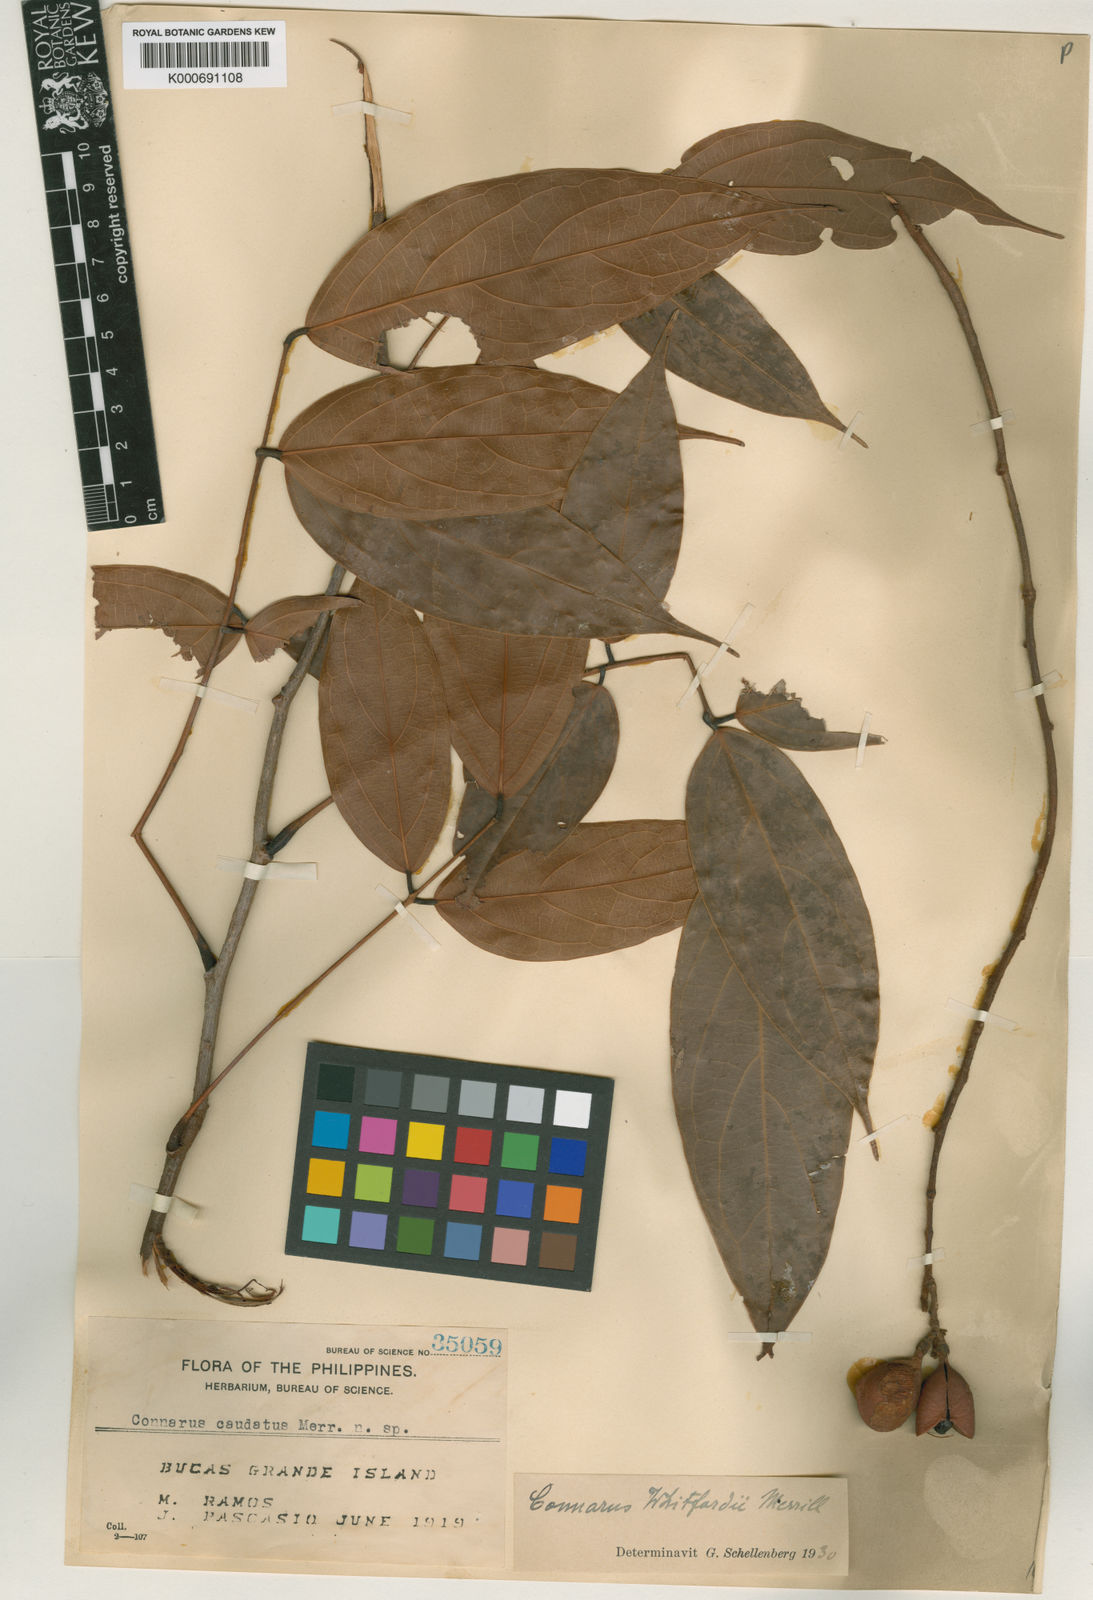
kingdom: Plantae
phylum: Tracheophyta
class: Magnoliopsida
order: Oxalidales
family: Connaraceae
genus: Connarus
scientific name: Connarus whitfordii
